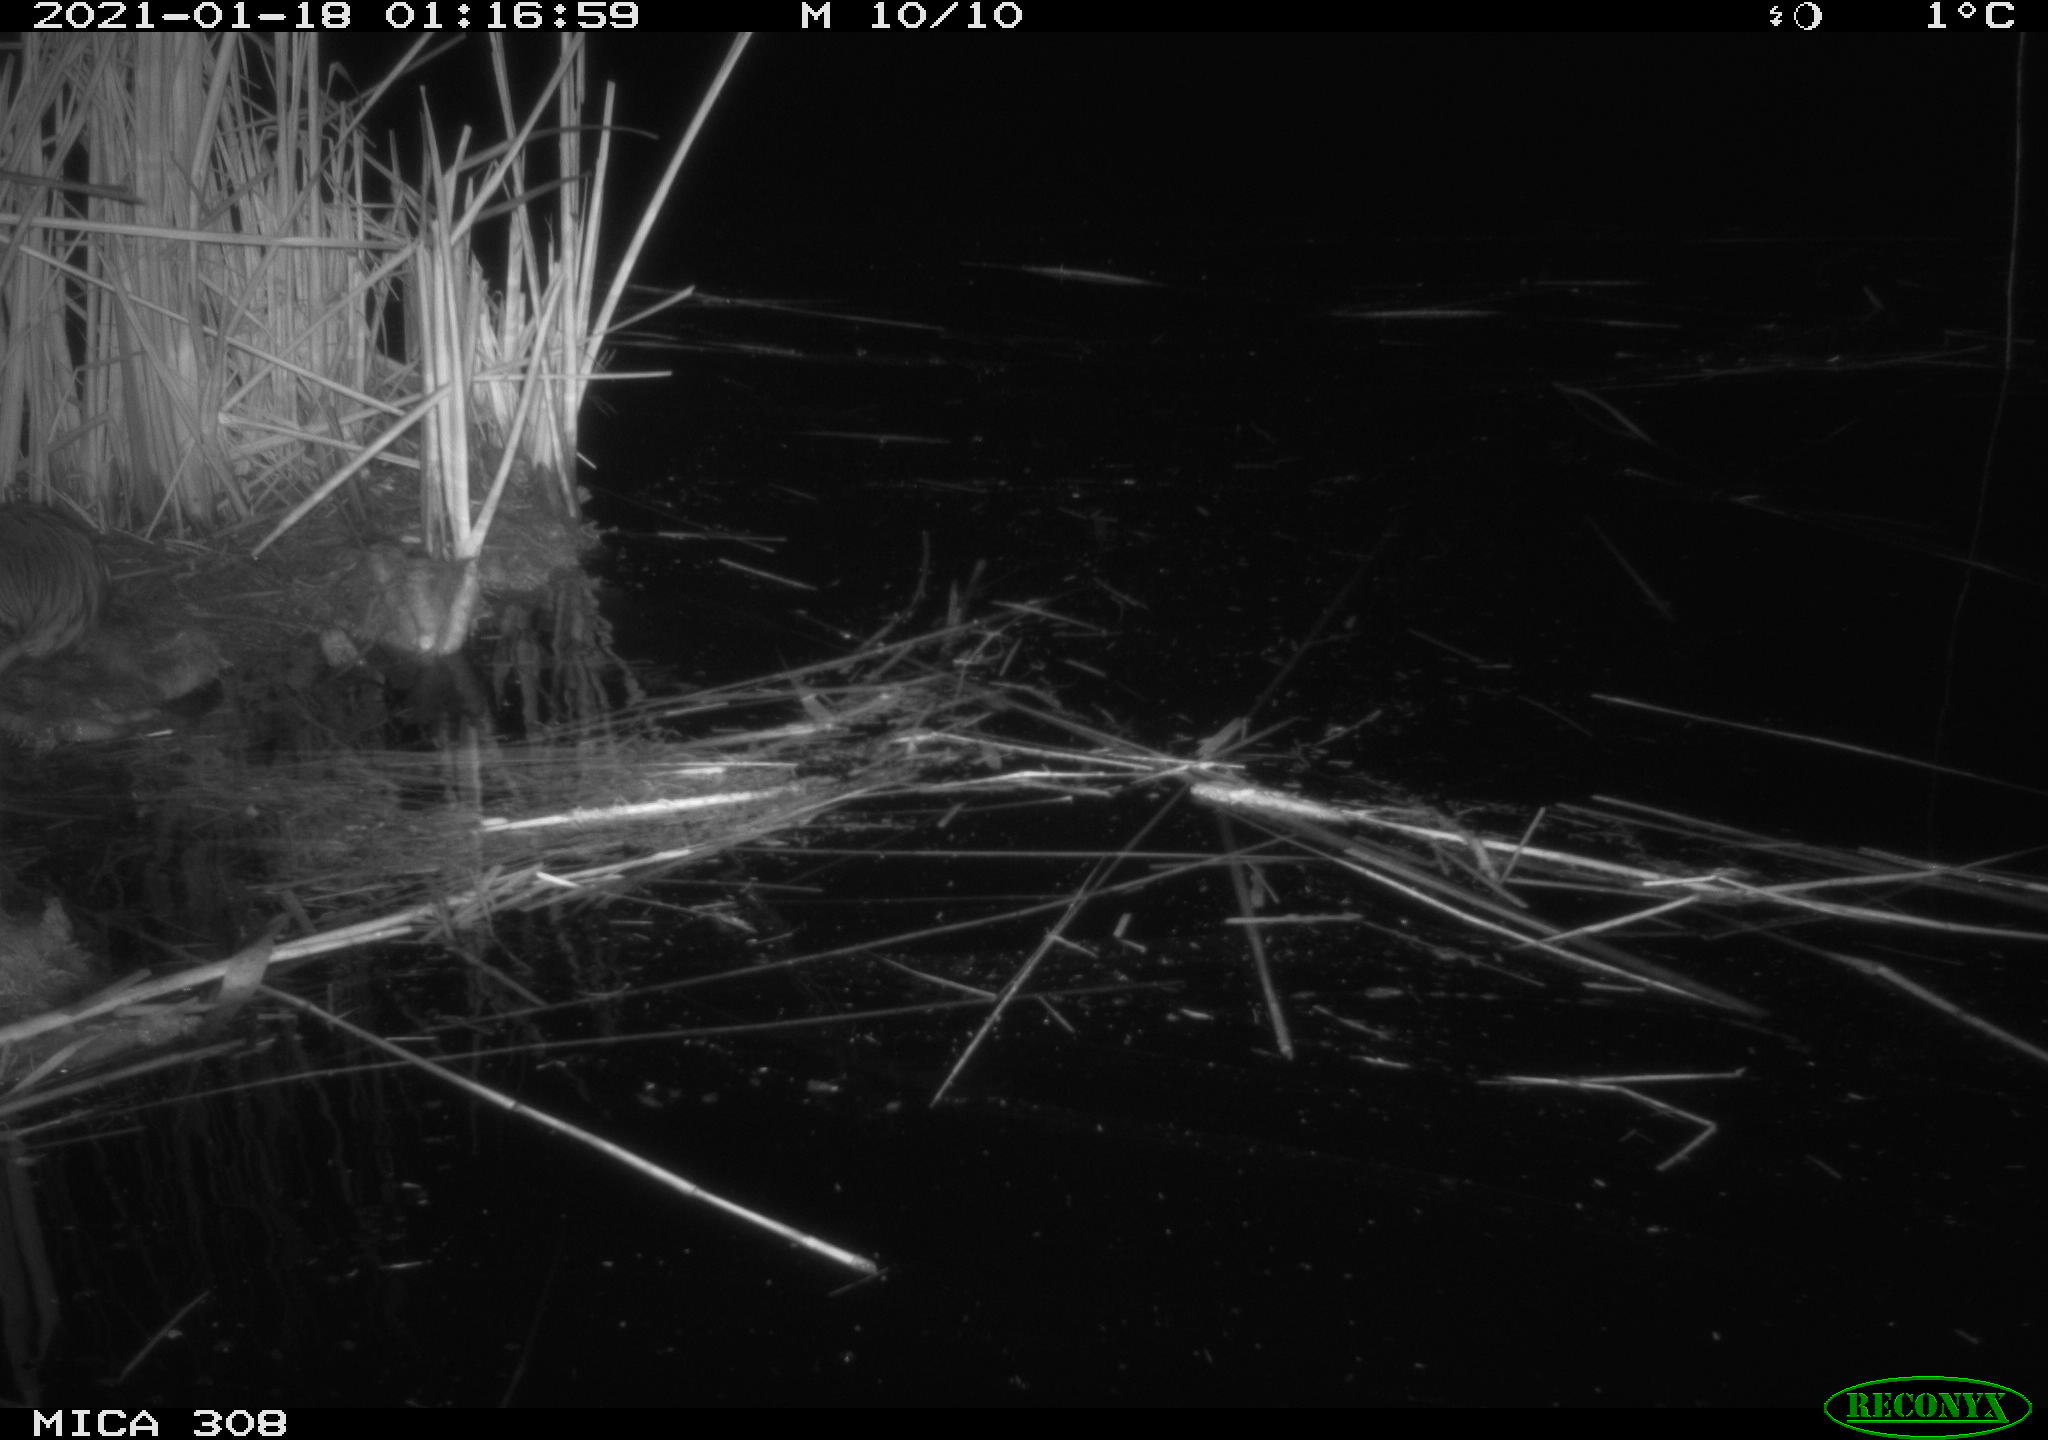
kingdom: Animalia
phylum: Chordata
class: Mammalia
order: Rodentia
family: Cricetidae
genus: Ondatra
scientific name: Ondatra zibethicus
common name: Muskrat
